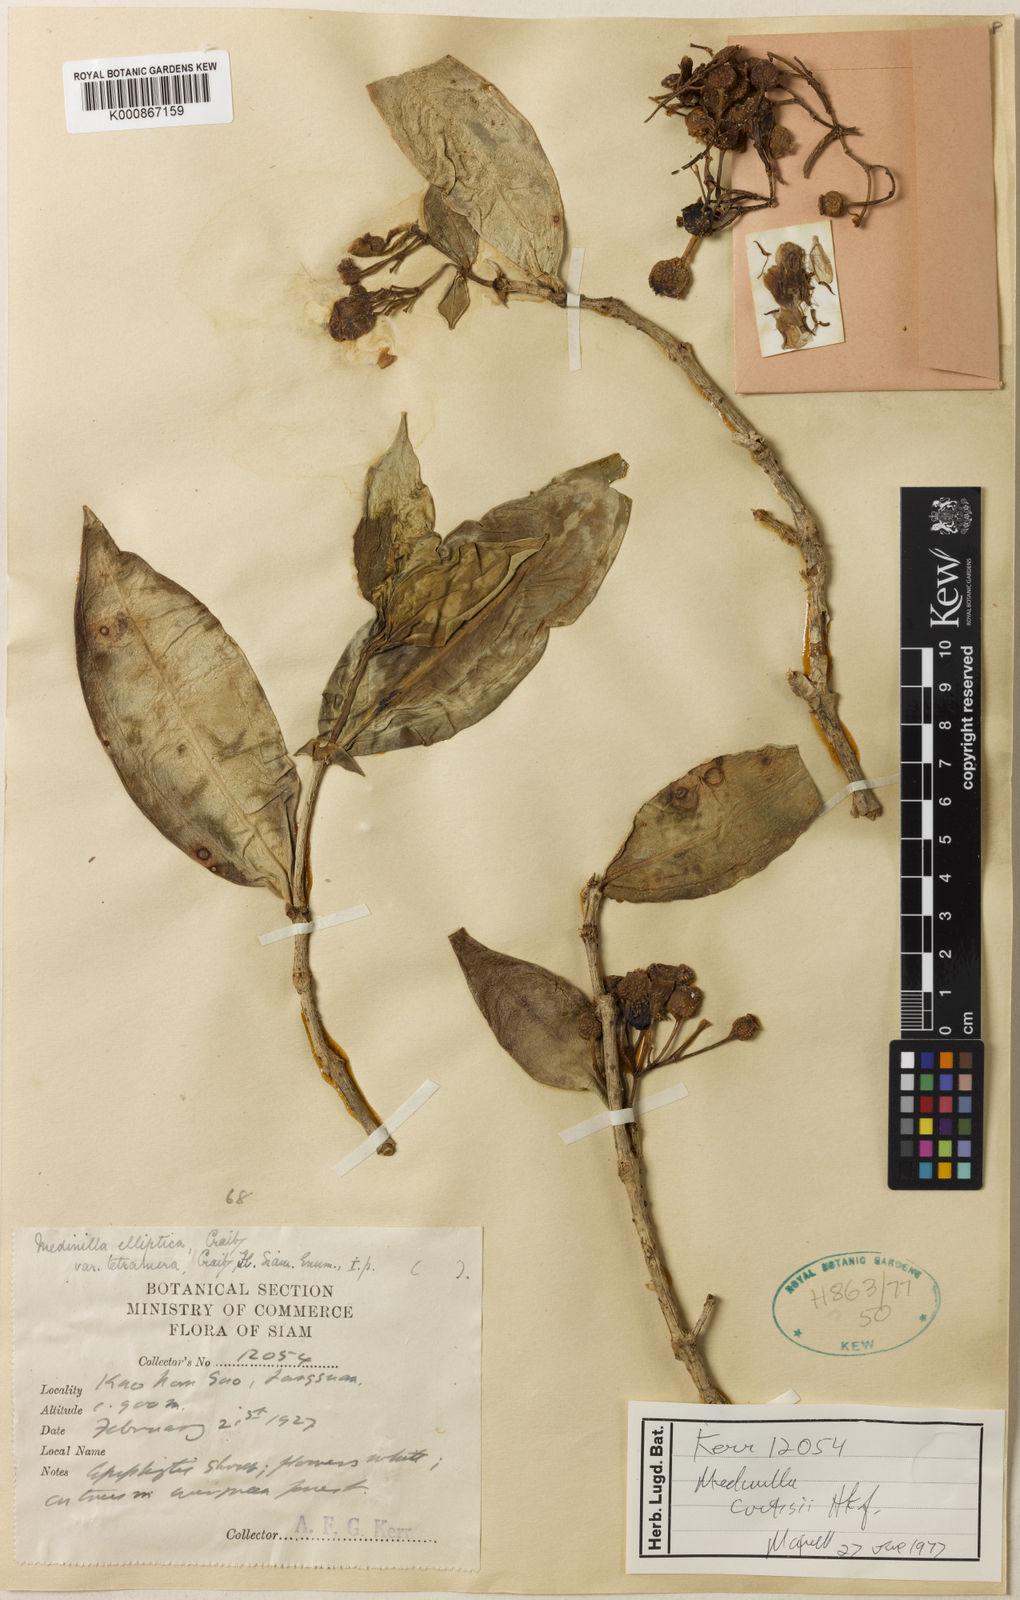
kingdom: Plantae
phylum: Tracheophyta
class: Magnoliopsida
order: Myrtales
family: Melastomataceae
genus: Medinilla
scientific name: Medinilla curtisii
